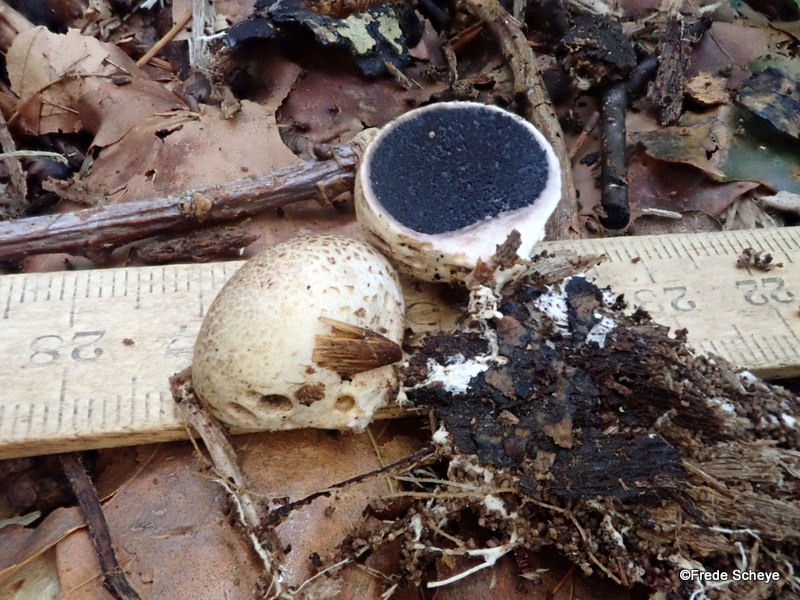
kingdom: Fungi
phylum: Basidiomycota
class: Agaricomycetes
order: Boletales
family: Sclerodermataceae
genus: Scleroderma
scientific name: Scleroderma citrinum
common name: almindelig bruskbold
